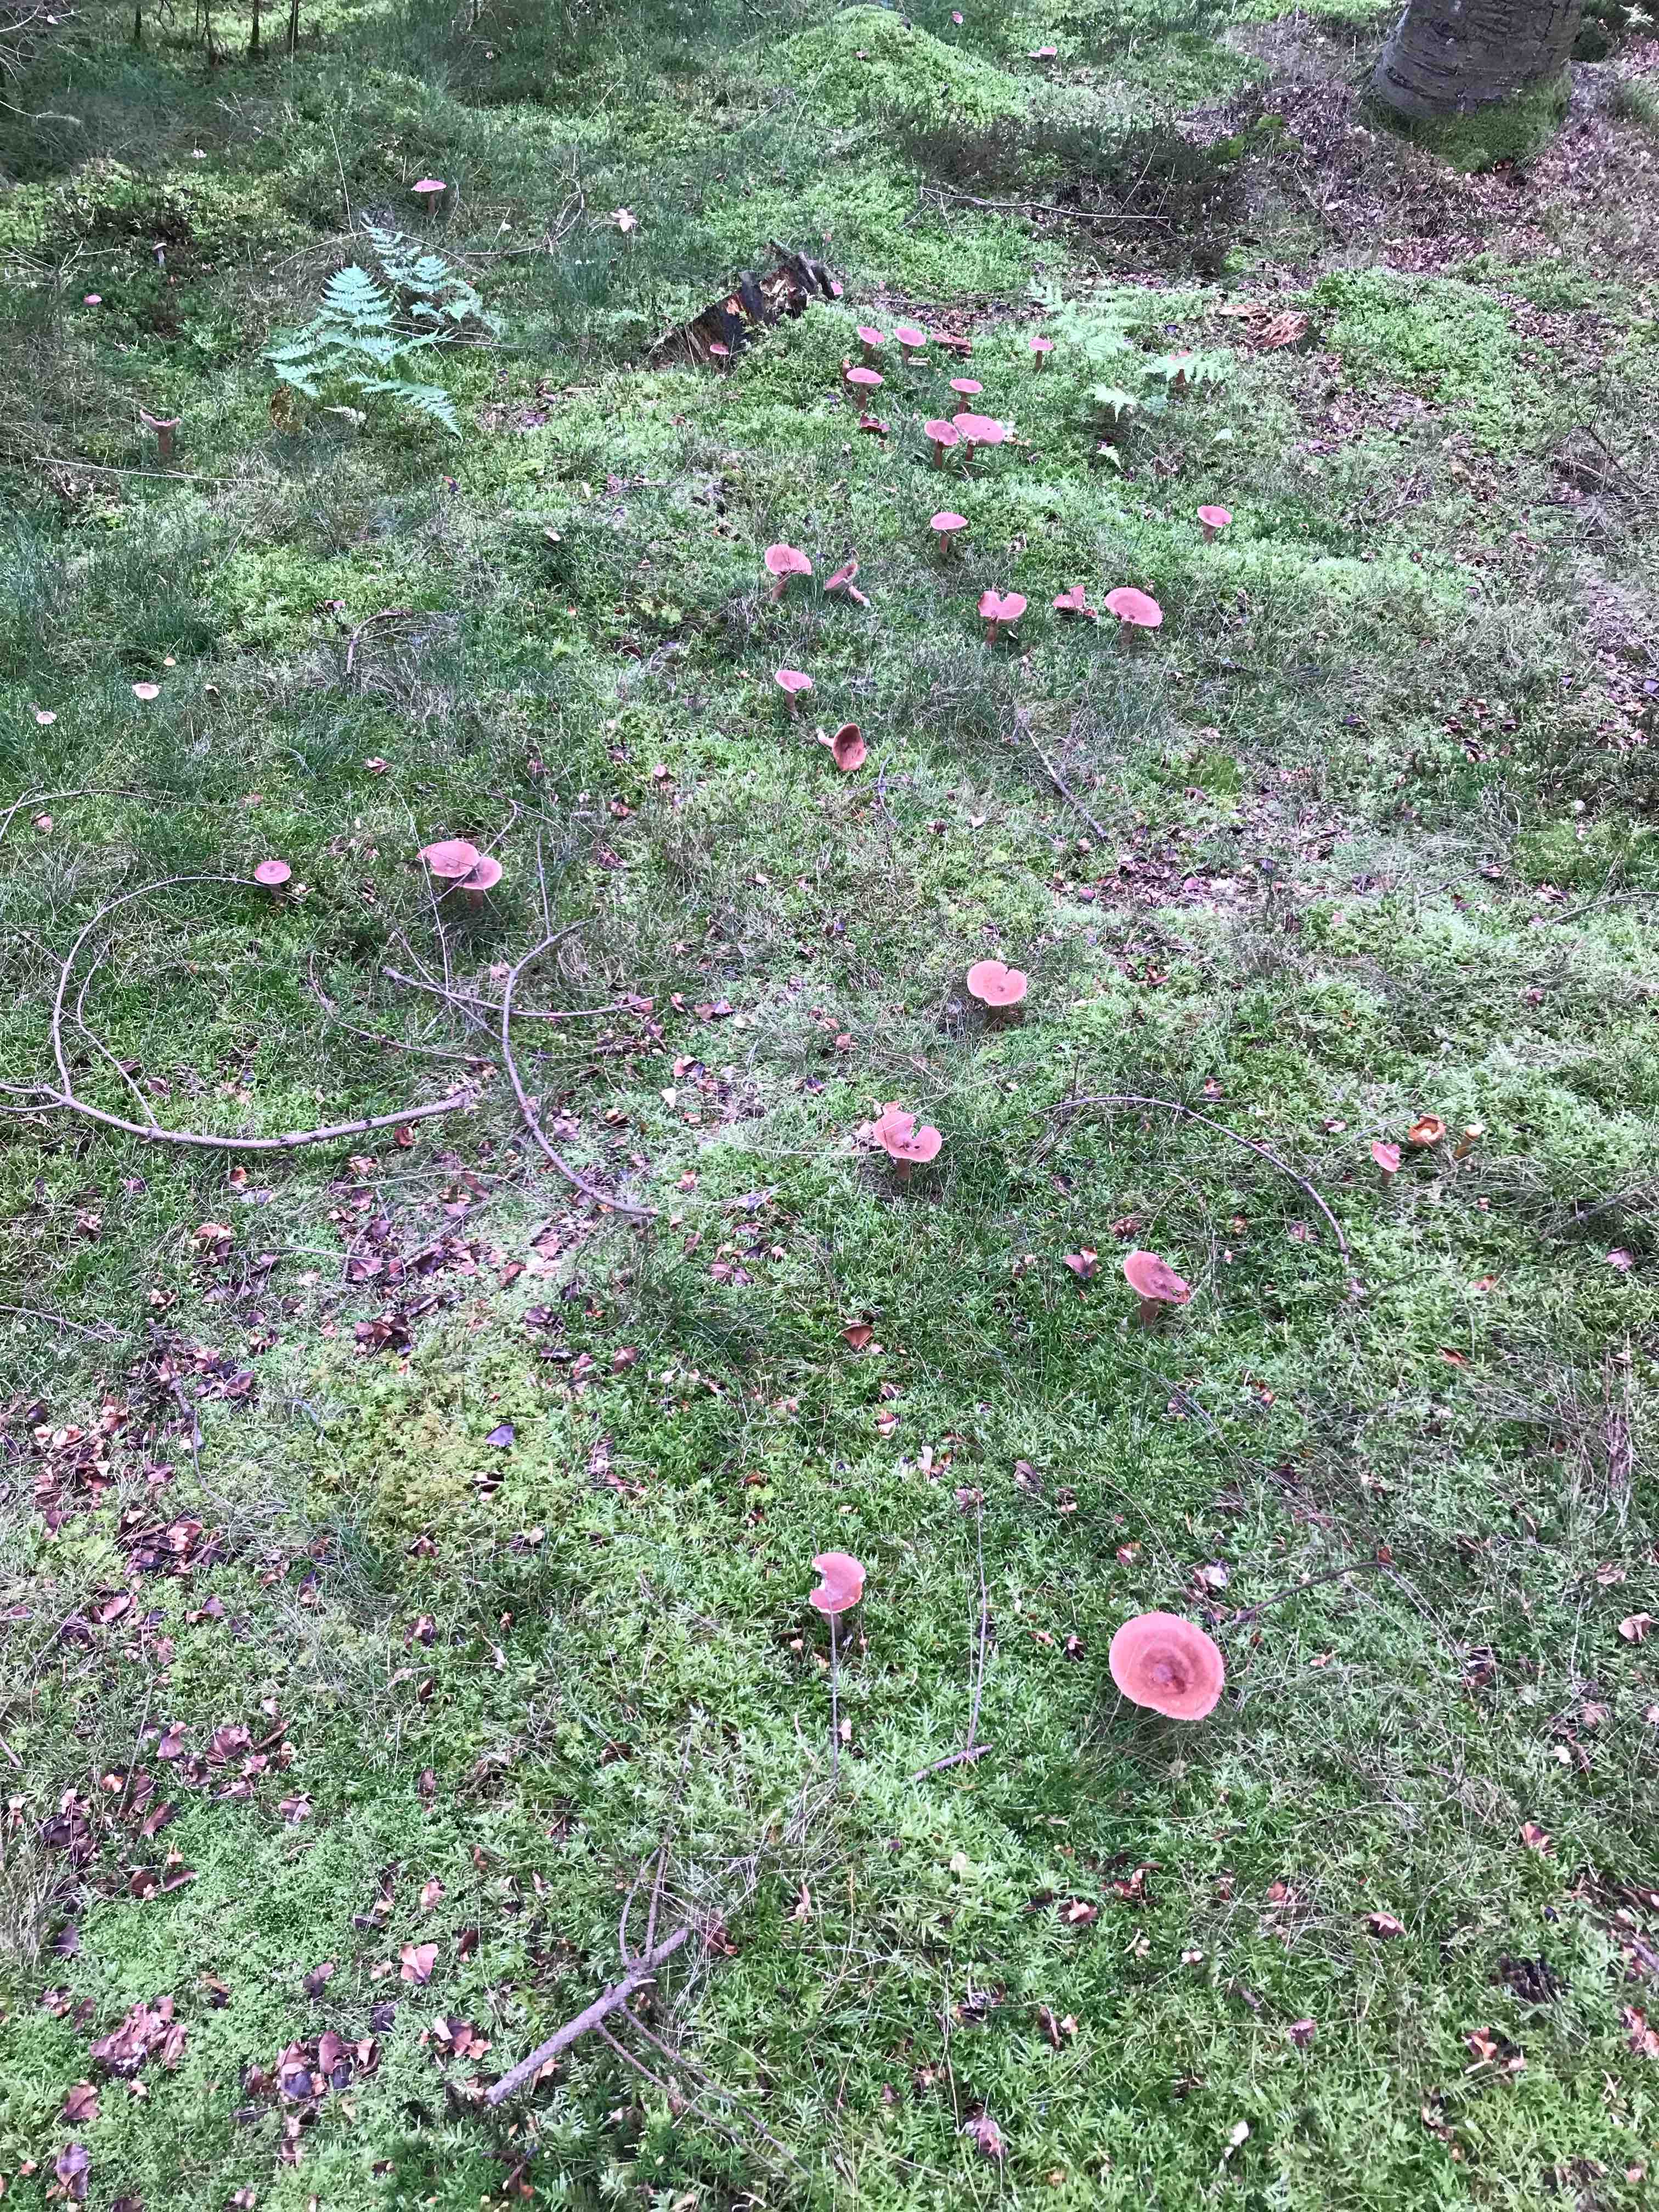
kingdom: Fungi
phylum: Basidiomycota
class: Agaricomycetes
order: Russulales
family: Russulaceae
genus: Lactarius
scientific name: Lactarius rufus
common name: rødbrun mælkehat
